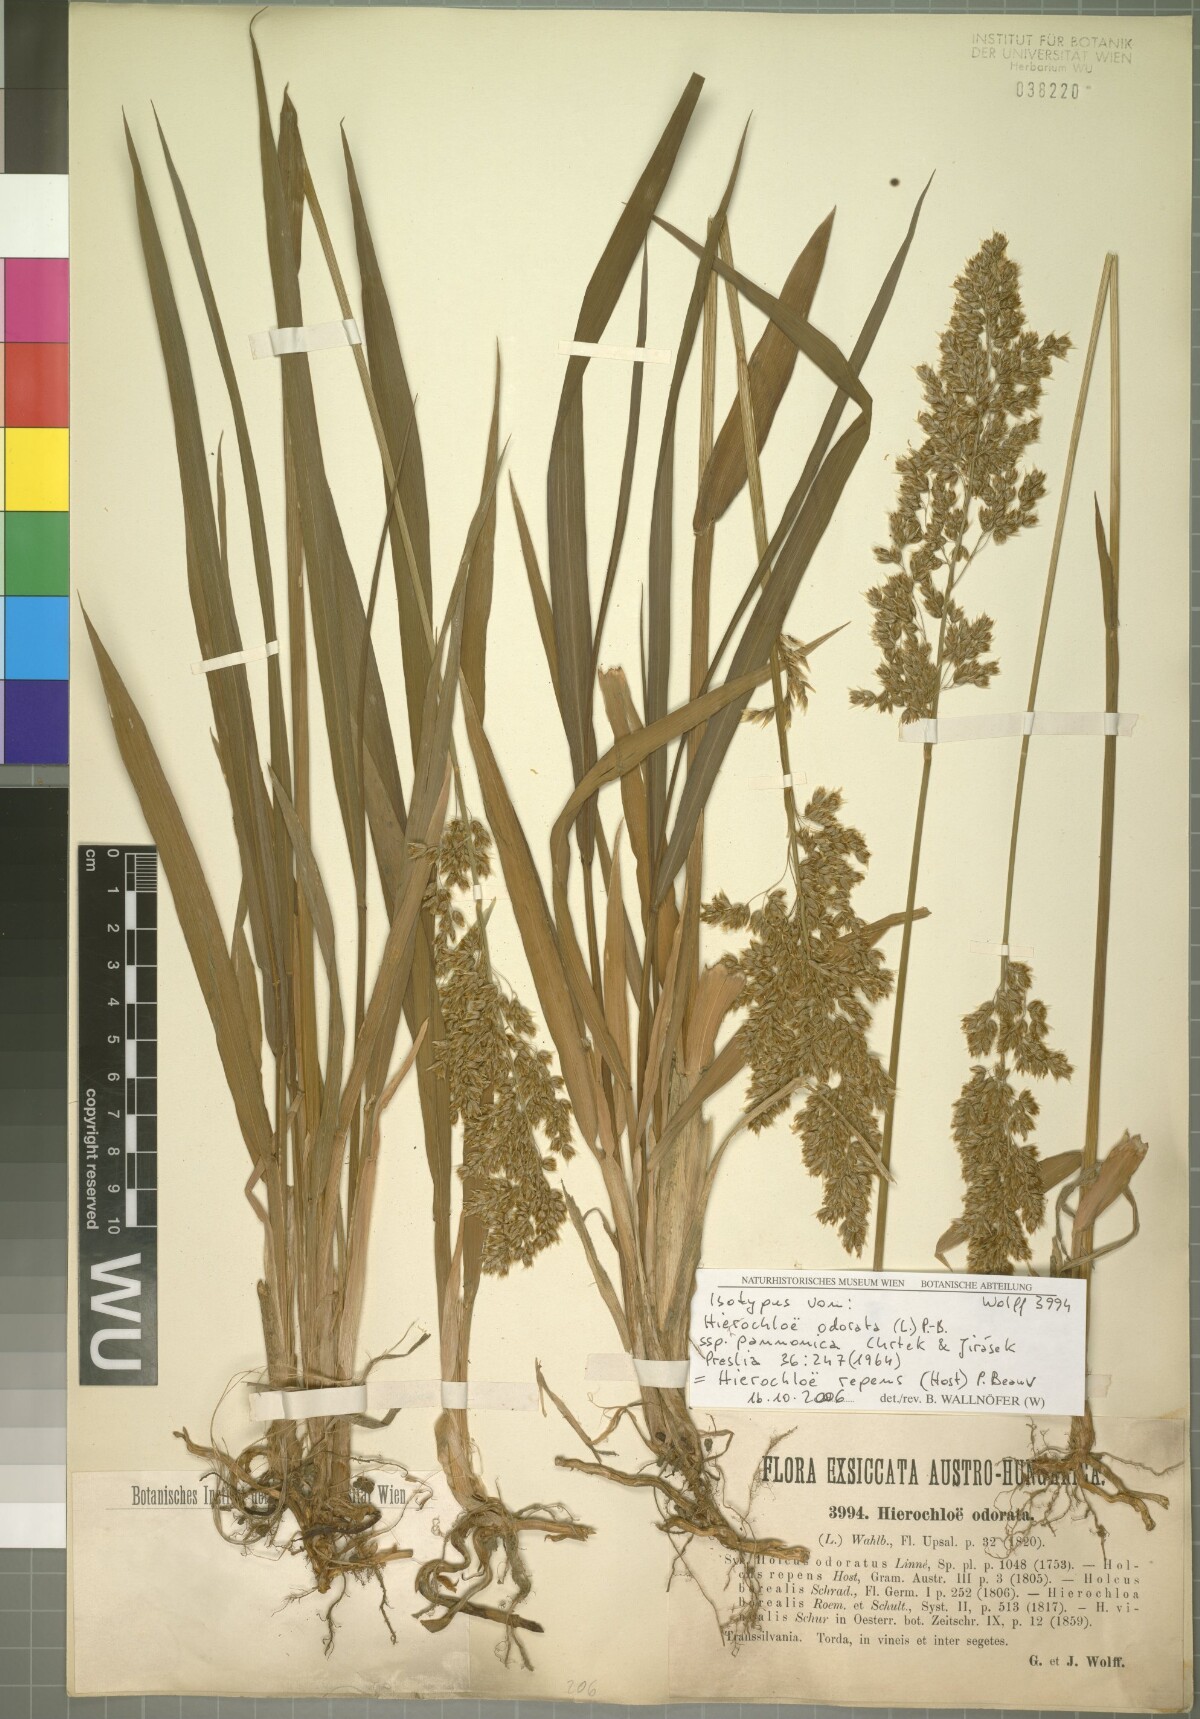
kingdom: Plantae
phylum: Tracheophyta
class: Liliopsida
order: Poales
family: Poaceae
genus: Anthoxanthum
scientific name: Anthoxanthum repens
